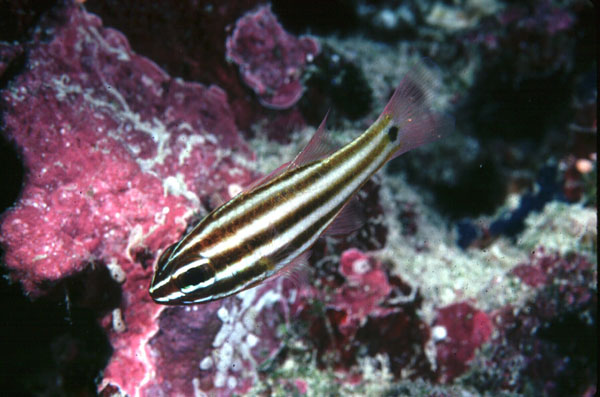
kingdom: Animalia
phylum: Chordata
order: Perciformes
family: Apogonidae
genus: Ostorhinchus
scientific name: Ostorhinchus angustatus
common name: Narrow-striped cardinalfish
